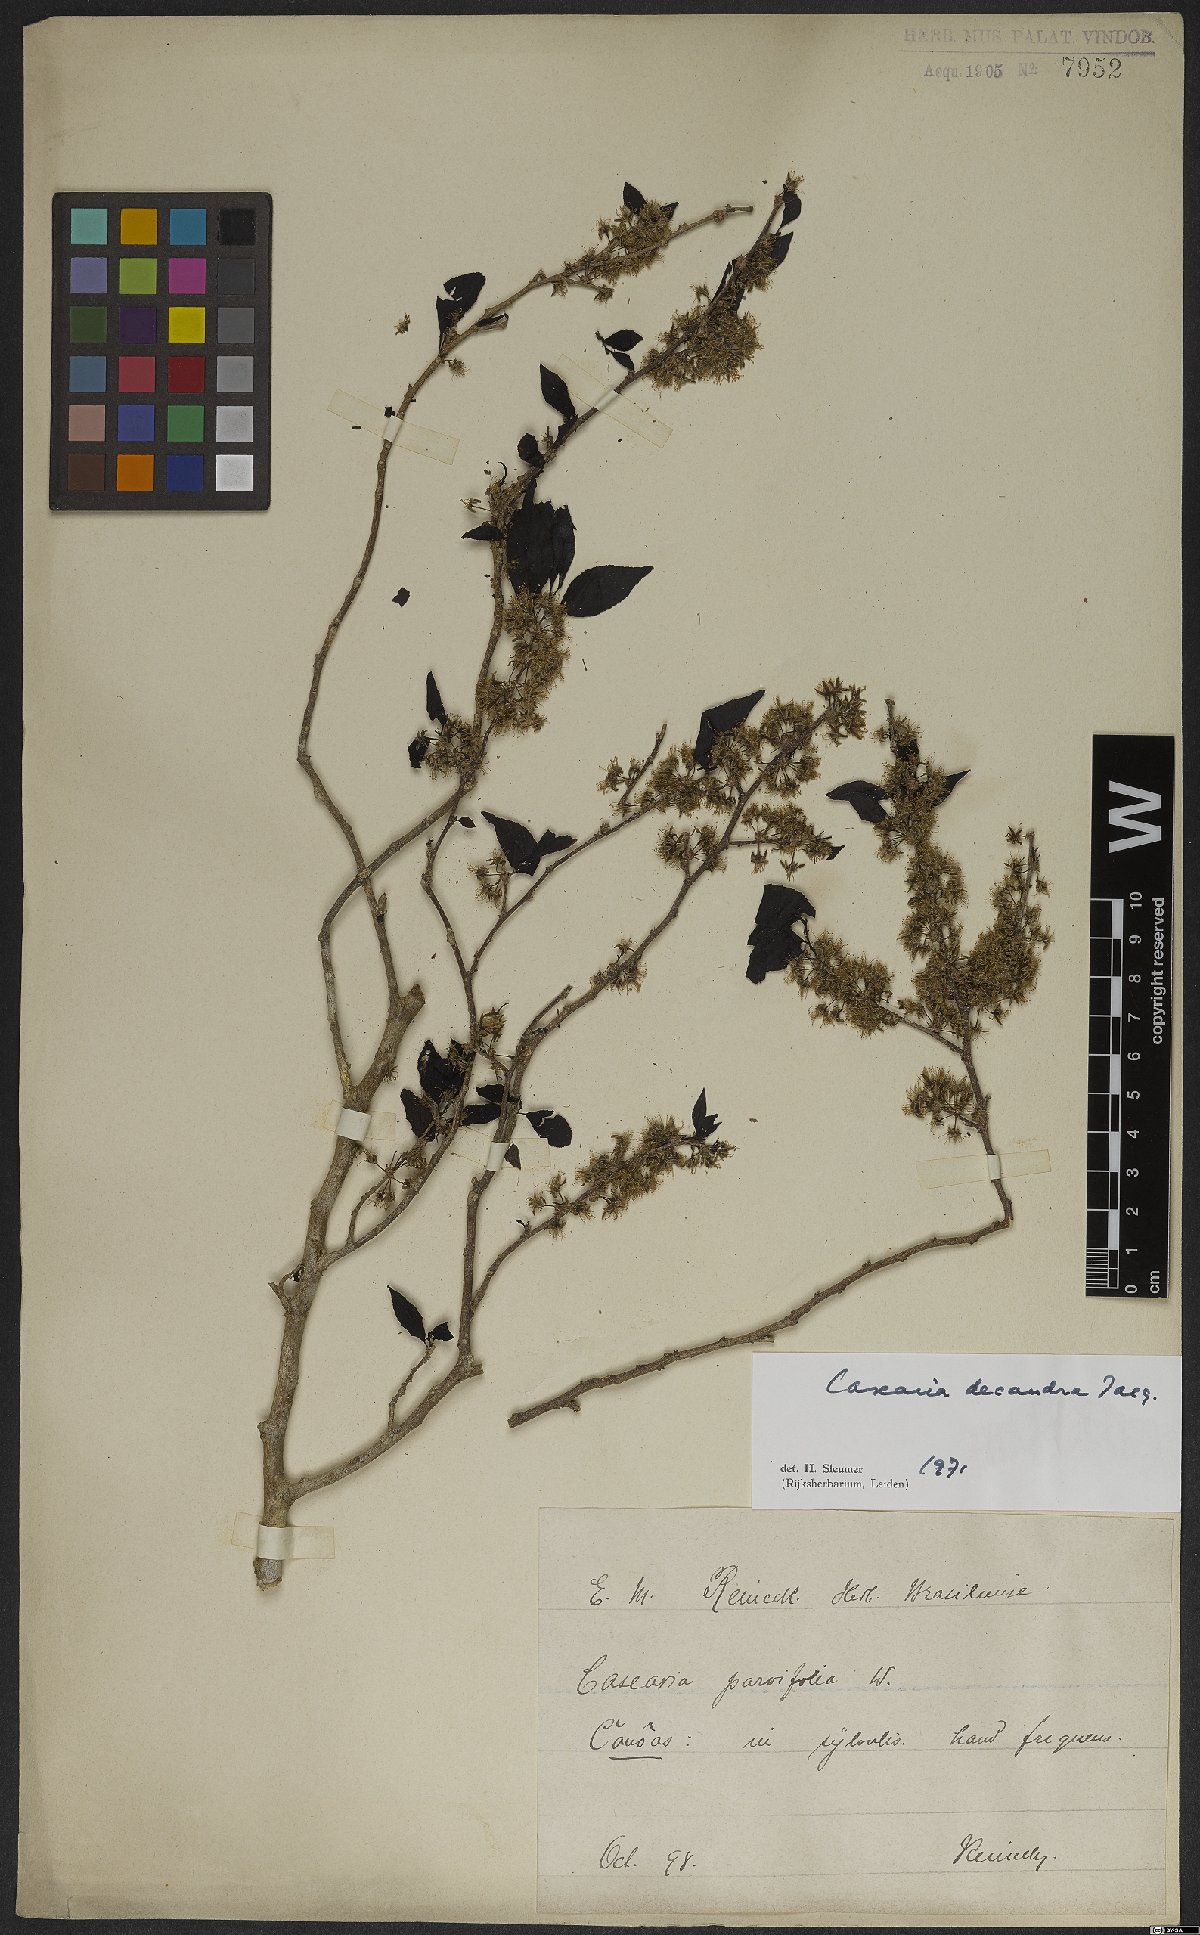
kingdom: Plantae
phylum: Tracheophyta
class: Magnoliopsida
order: Malpighiales
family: Salicaceae
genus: Casearia
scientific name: Casearia decandra
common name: Crack open
